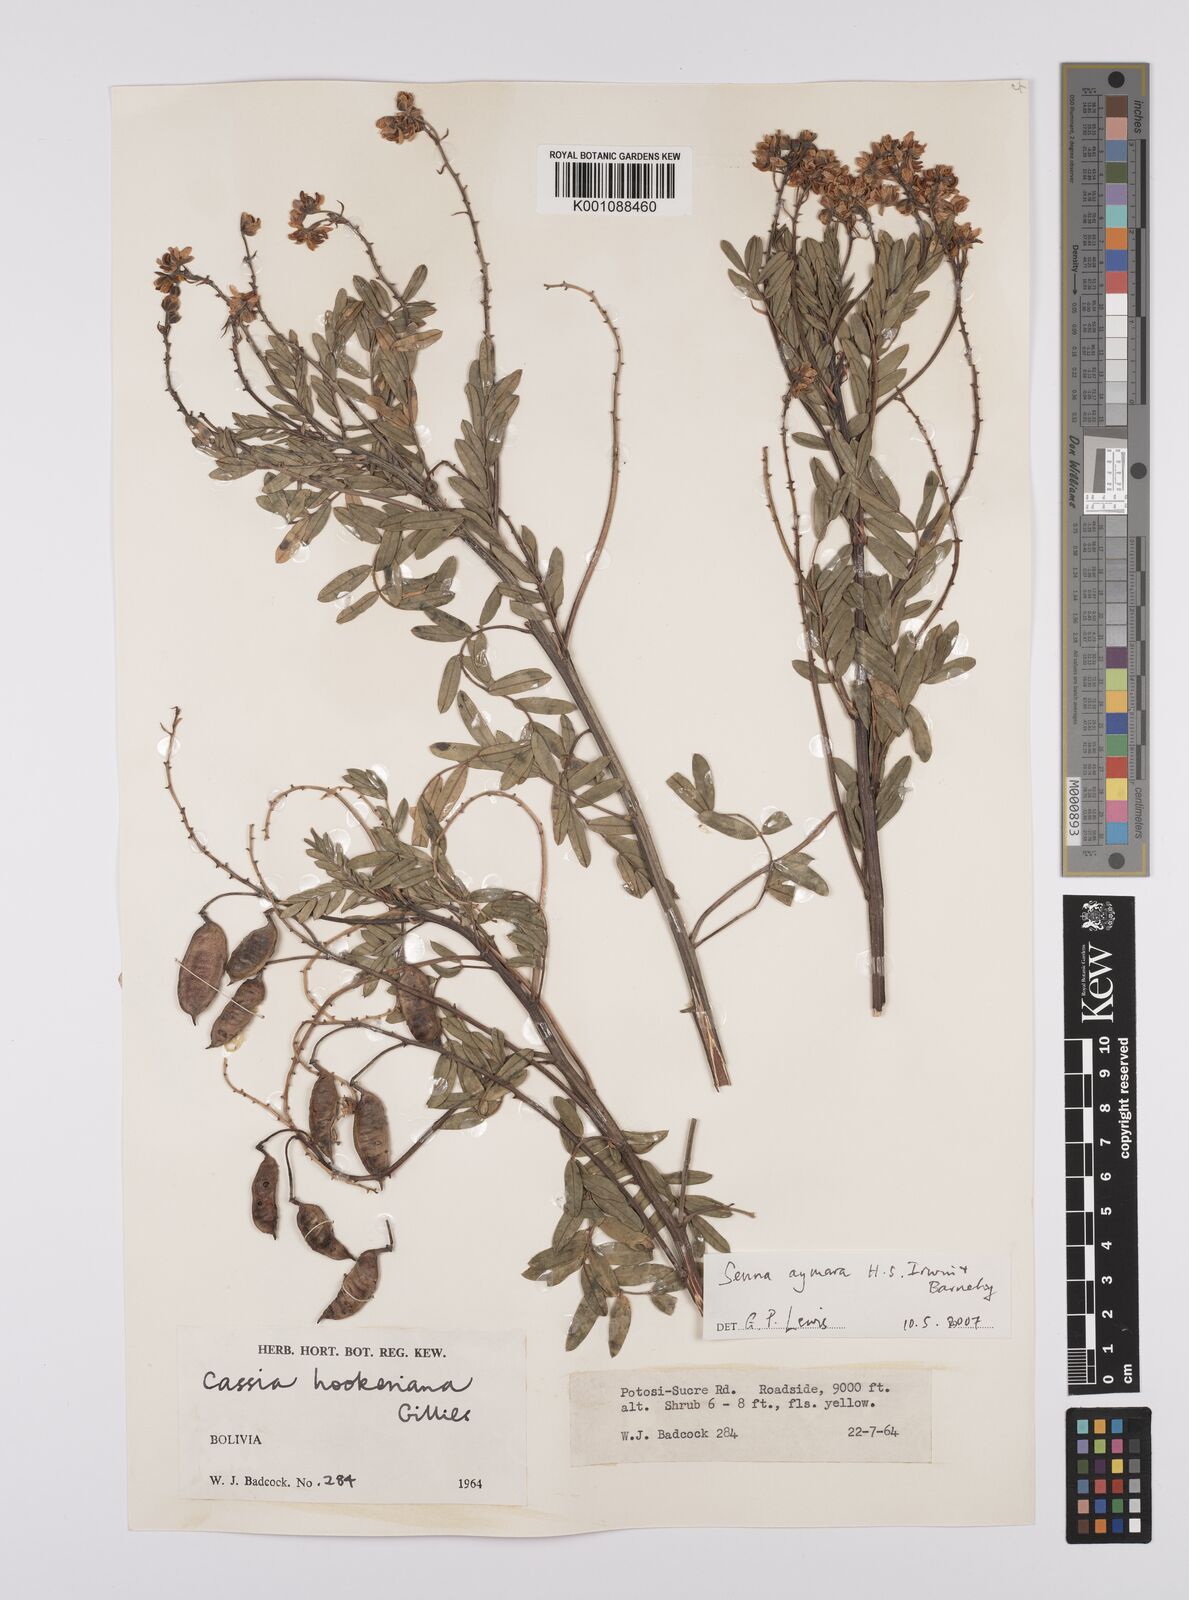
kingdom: Plantae
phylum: Tracheophyta
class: Magnoliopsida
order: Fabales
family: Fabaceae
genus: Senna
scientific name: Senna aymara
